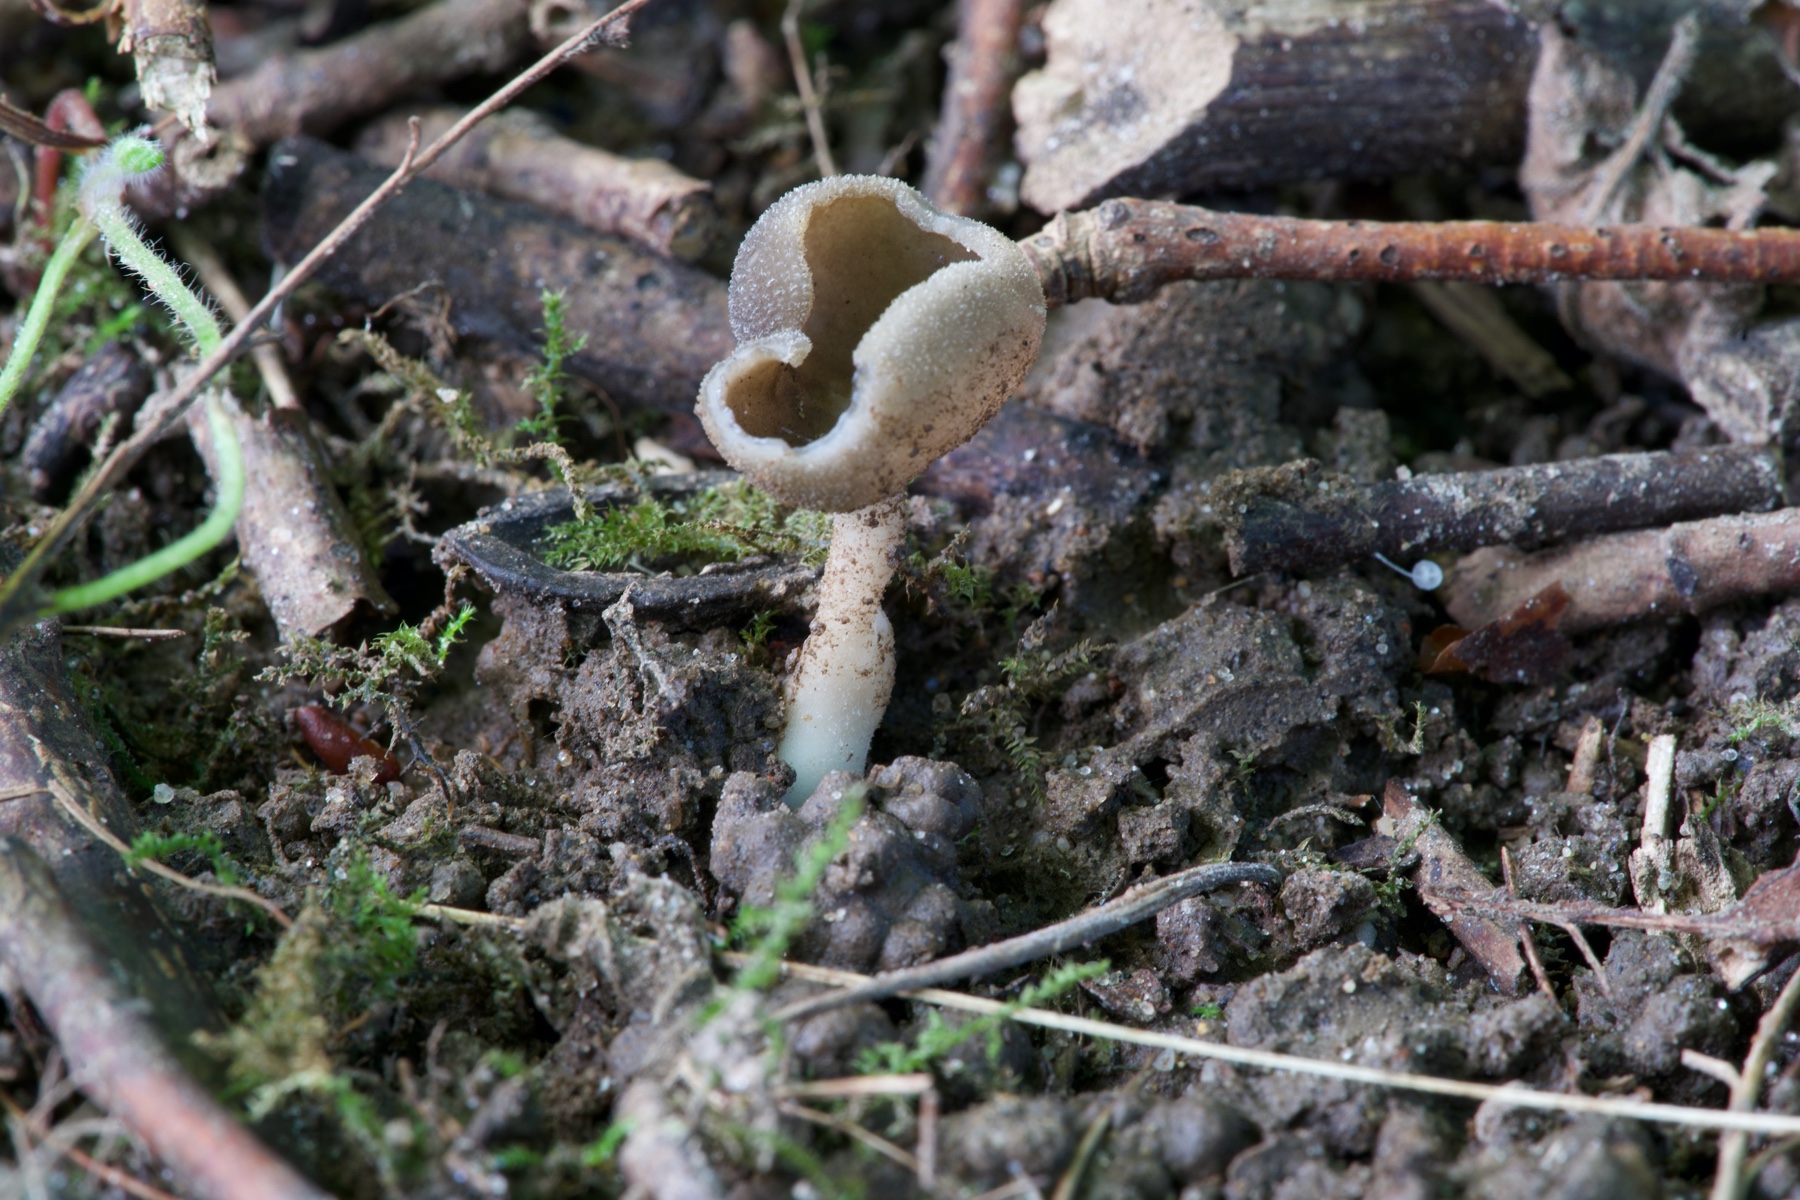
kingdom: Fungi
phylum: Ascomycota
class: Pezizomycetes
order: Pezizales
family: Helvellaceae
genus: Helvella
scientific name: Helvella fibrosa
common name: dunstokket foldhat
